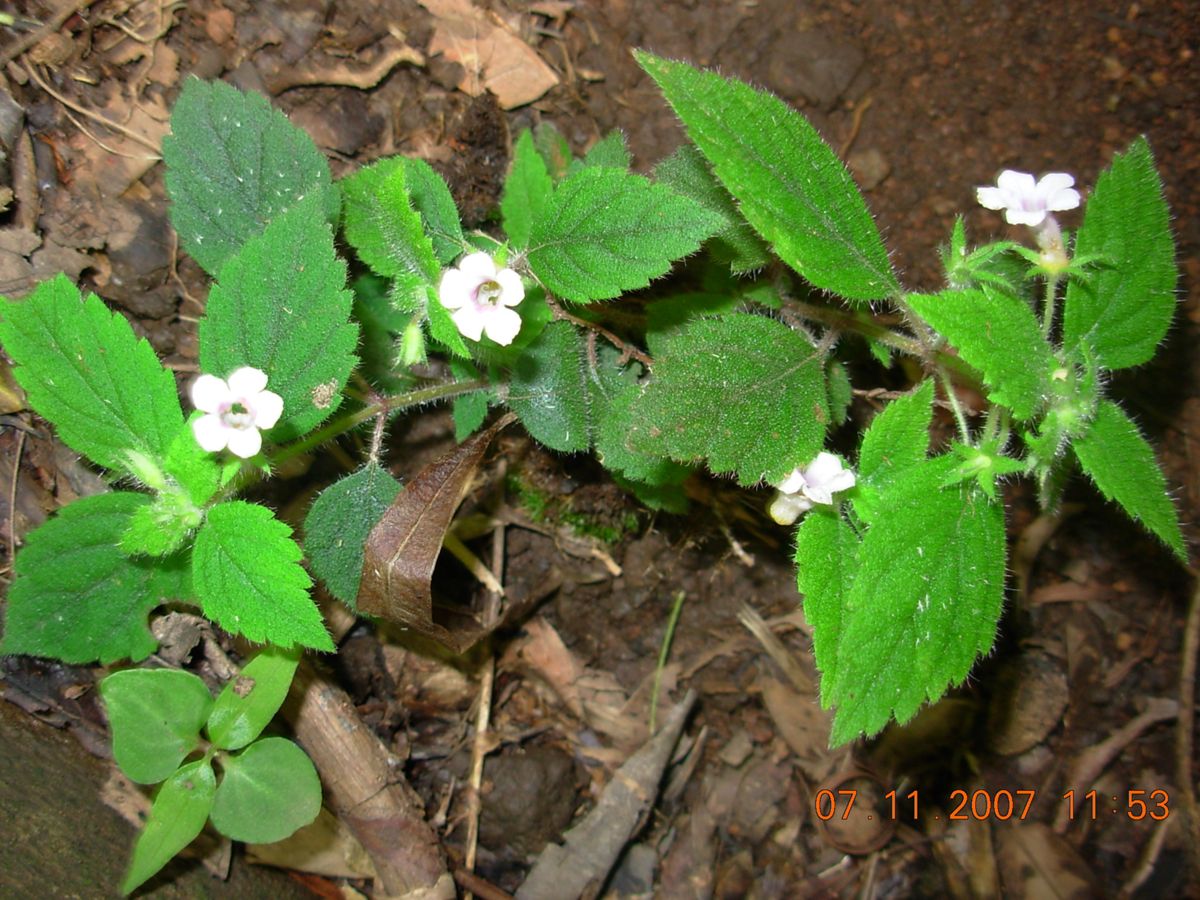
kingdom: Plantae
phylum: Tracheophyta
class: Magnoliopsida
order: Lamiales
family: Gesneriaceae
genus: Achimenes
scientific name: Achimenes erecta
